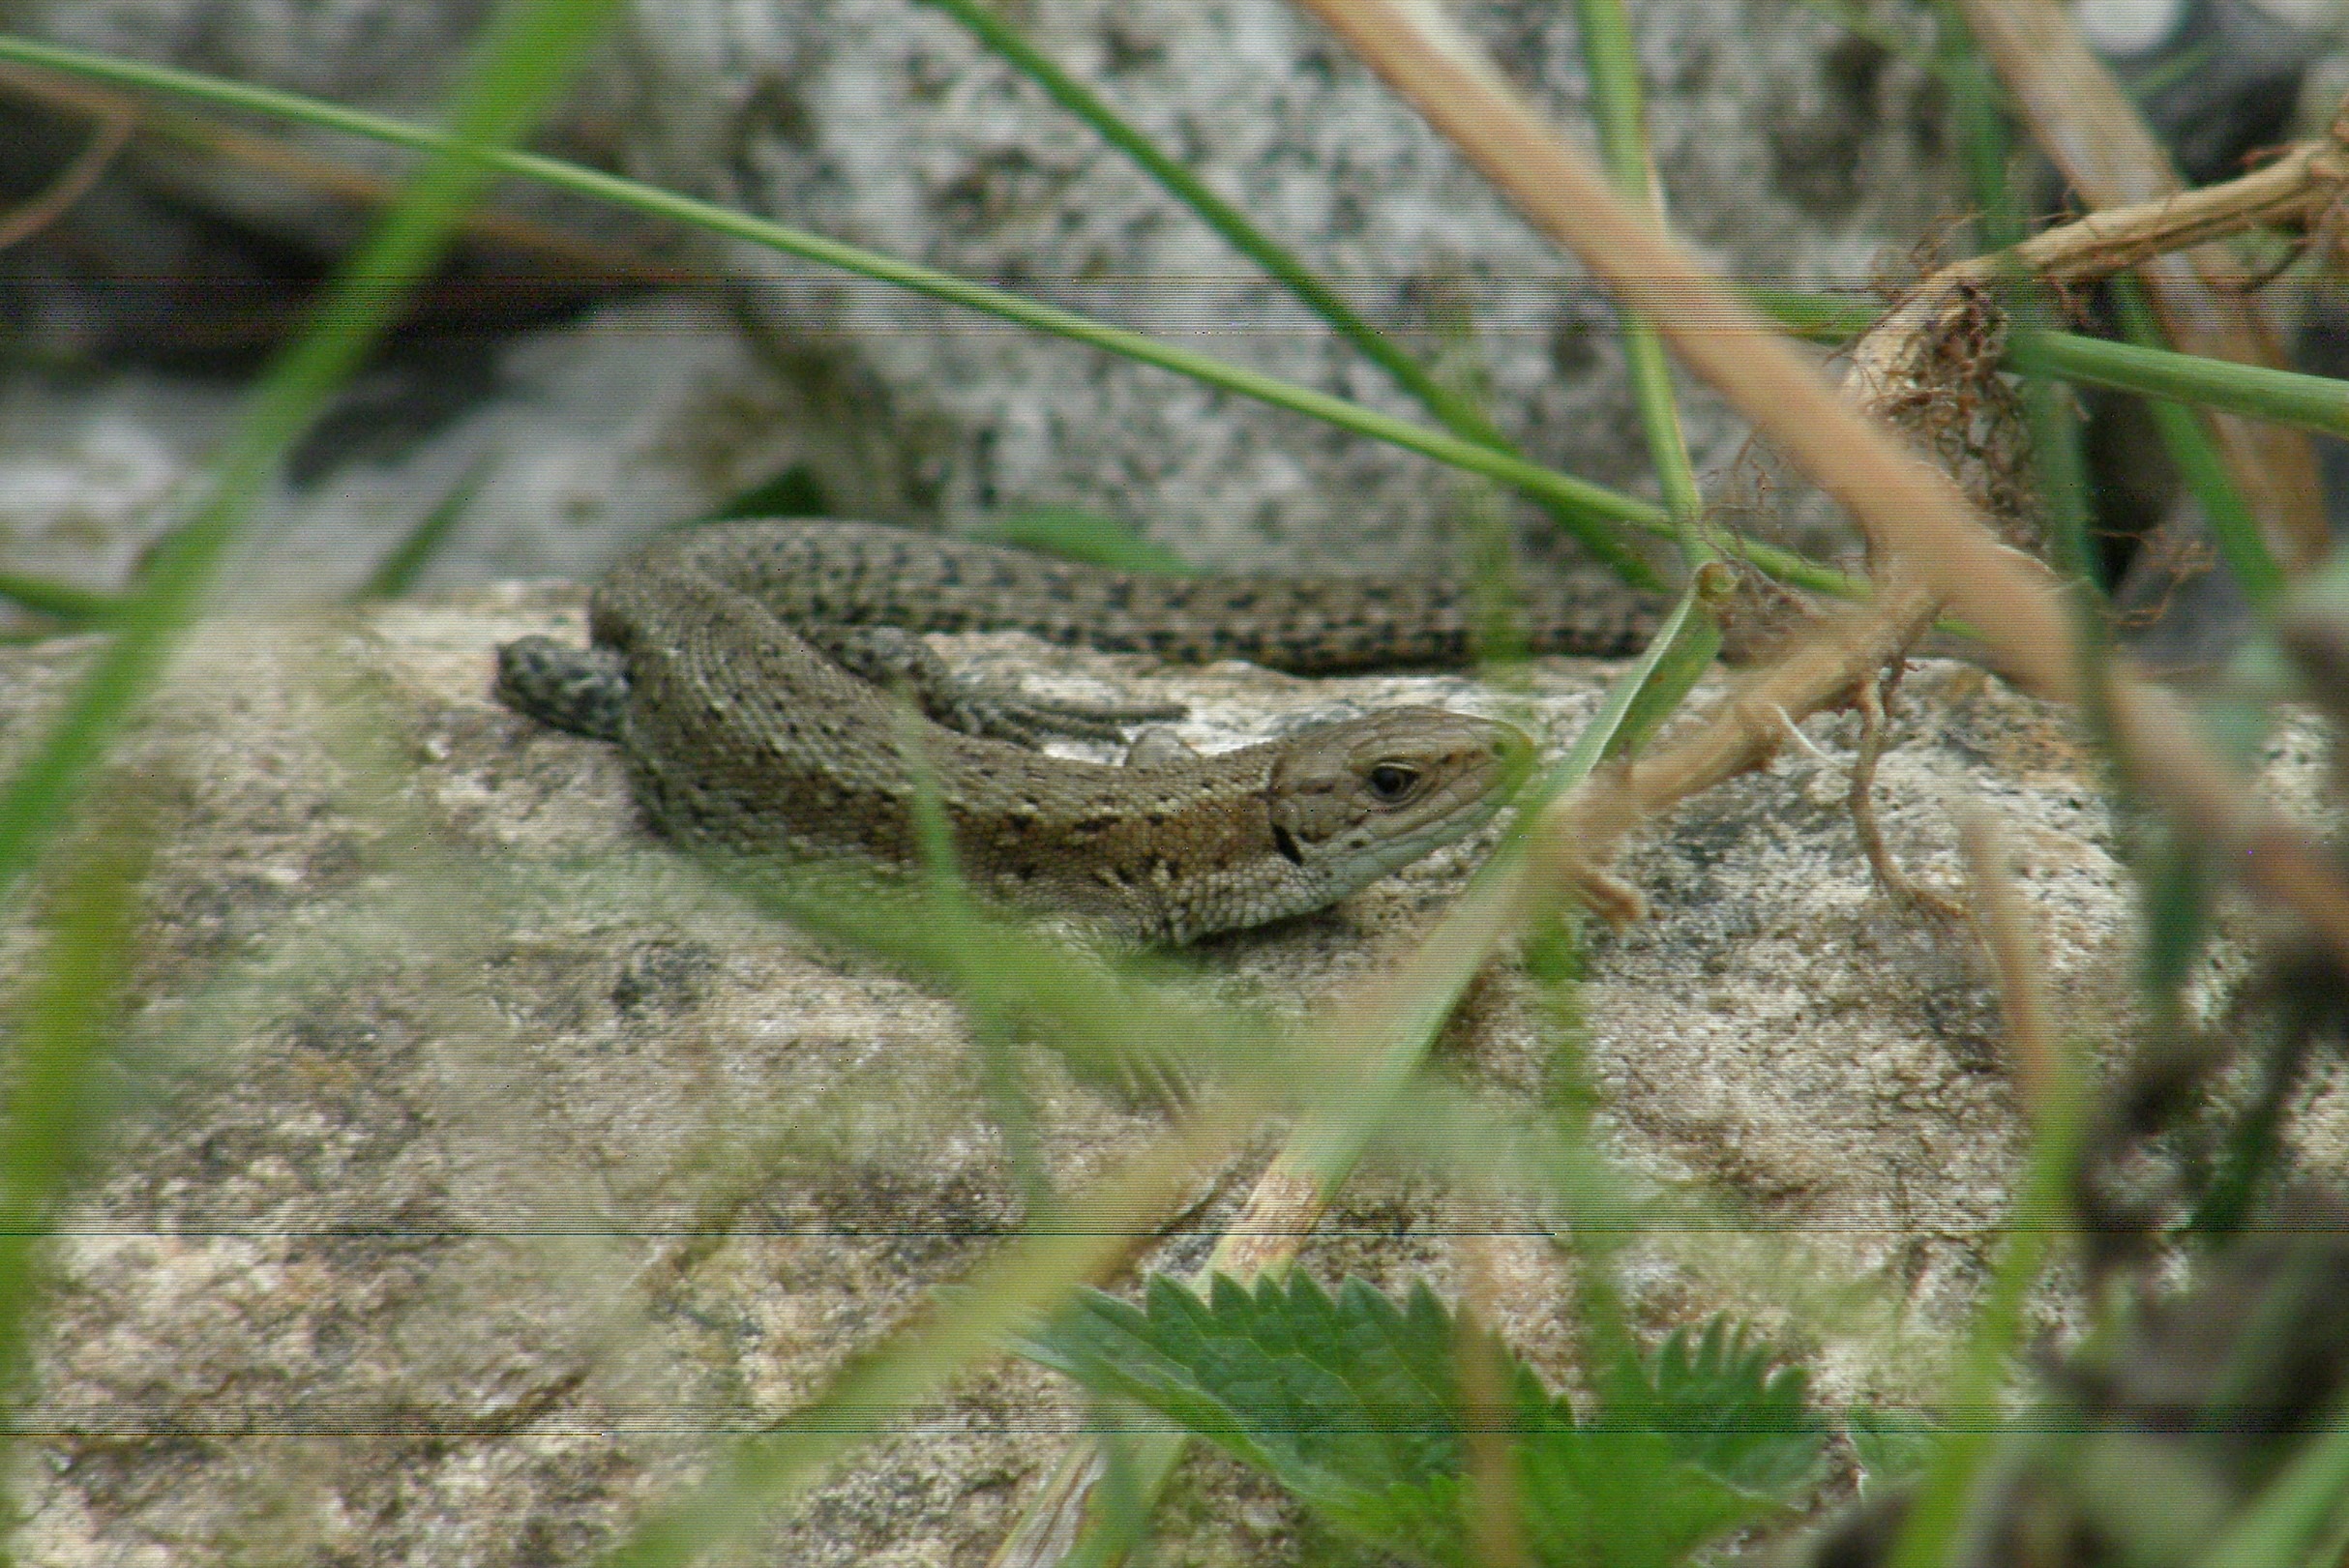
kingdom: Animalia
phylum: Chordata
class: Squamata
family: Lacertidae
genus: Zootoca
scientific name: Zootoca vivipara
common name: Skovfirben
